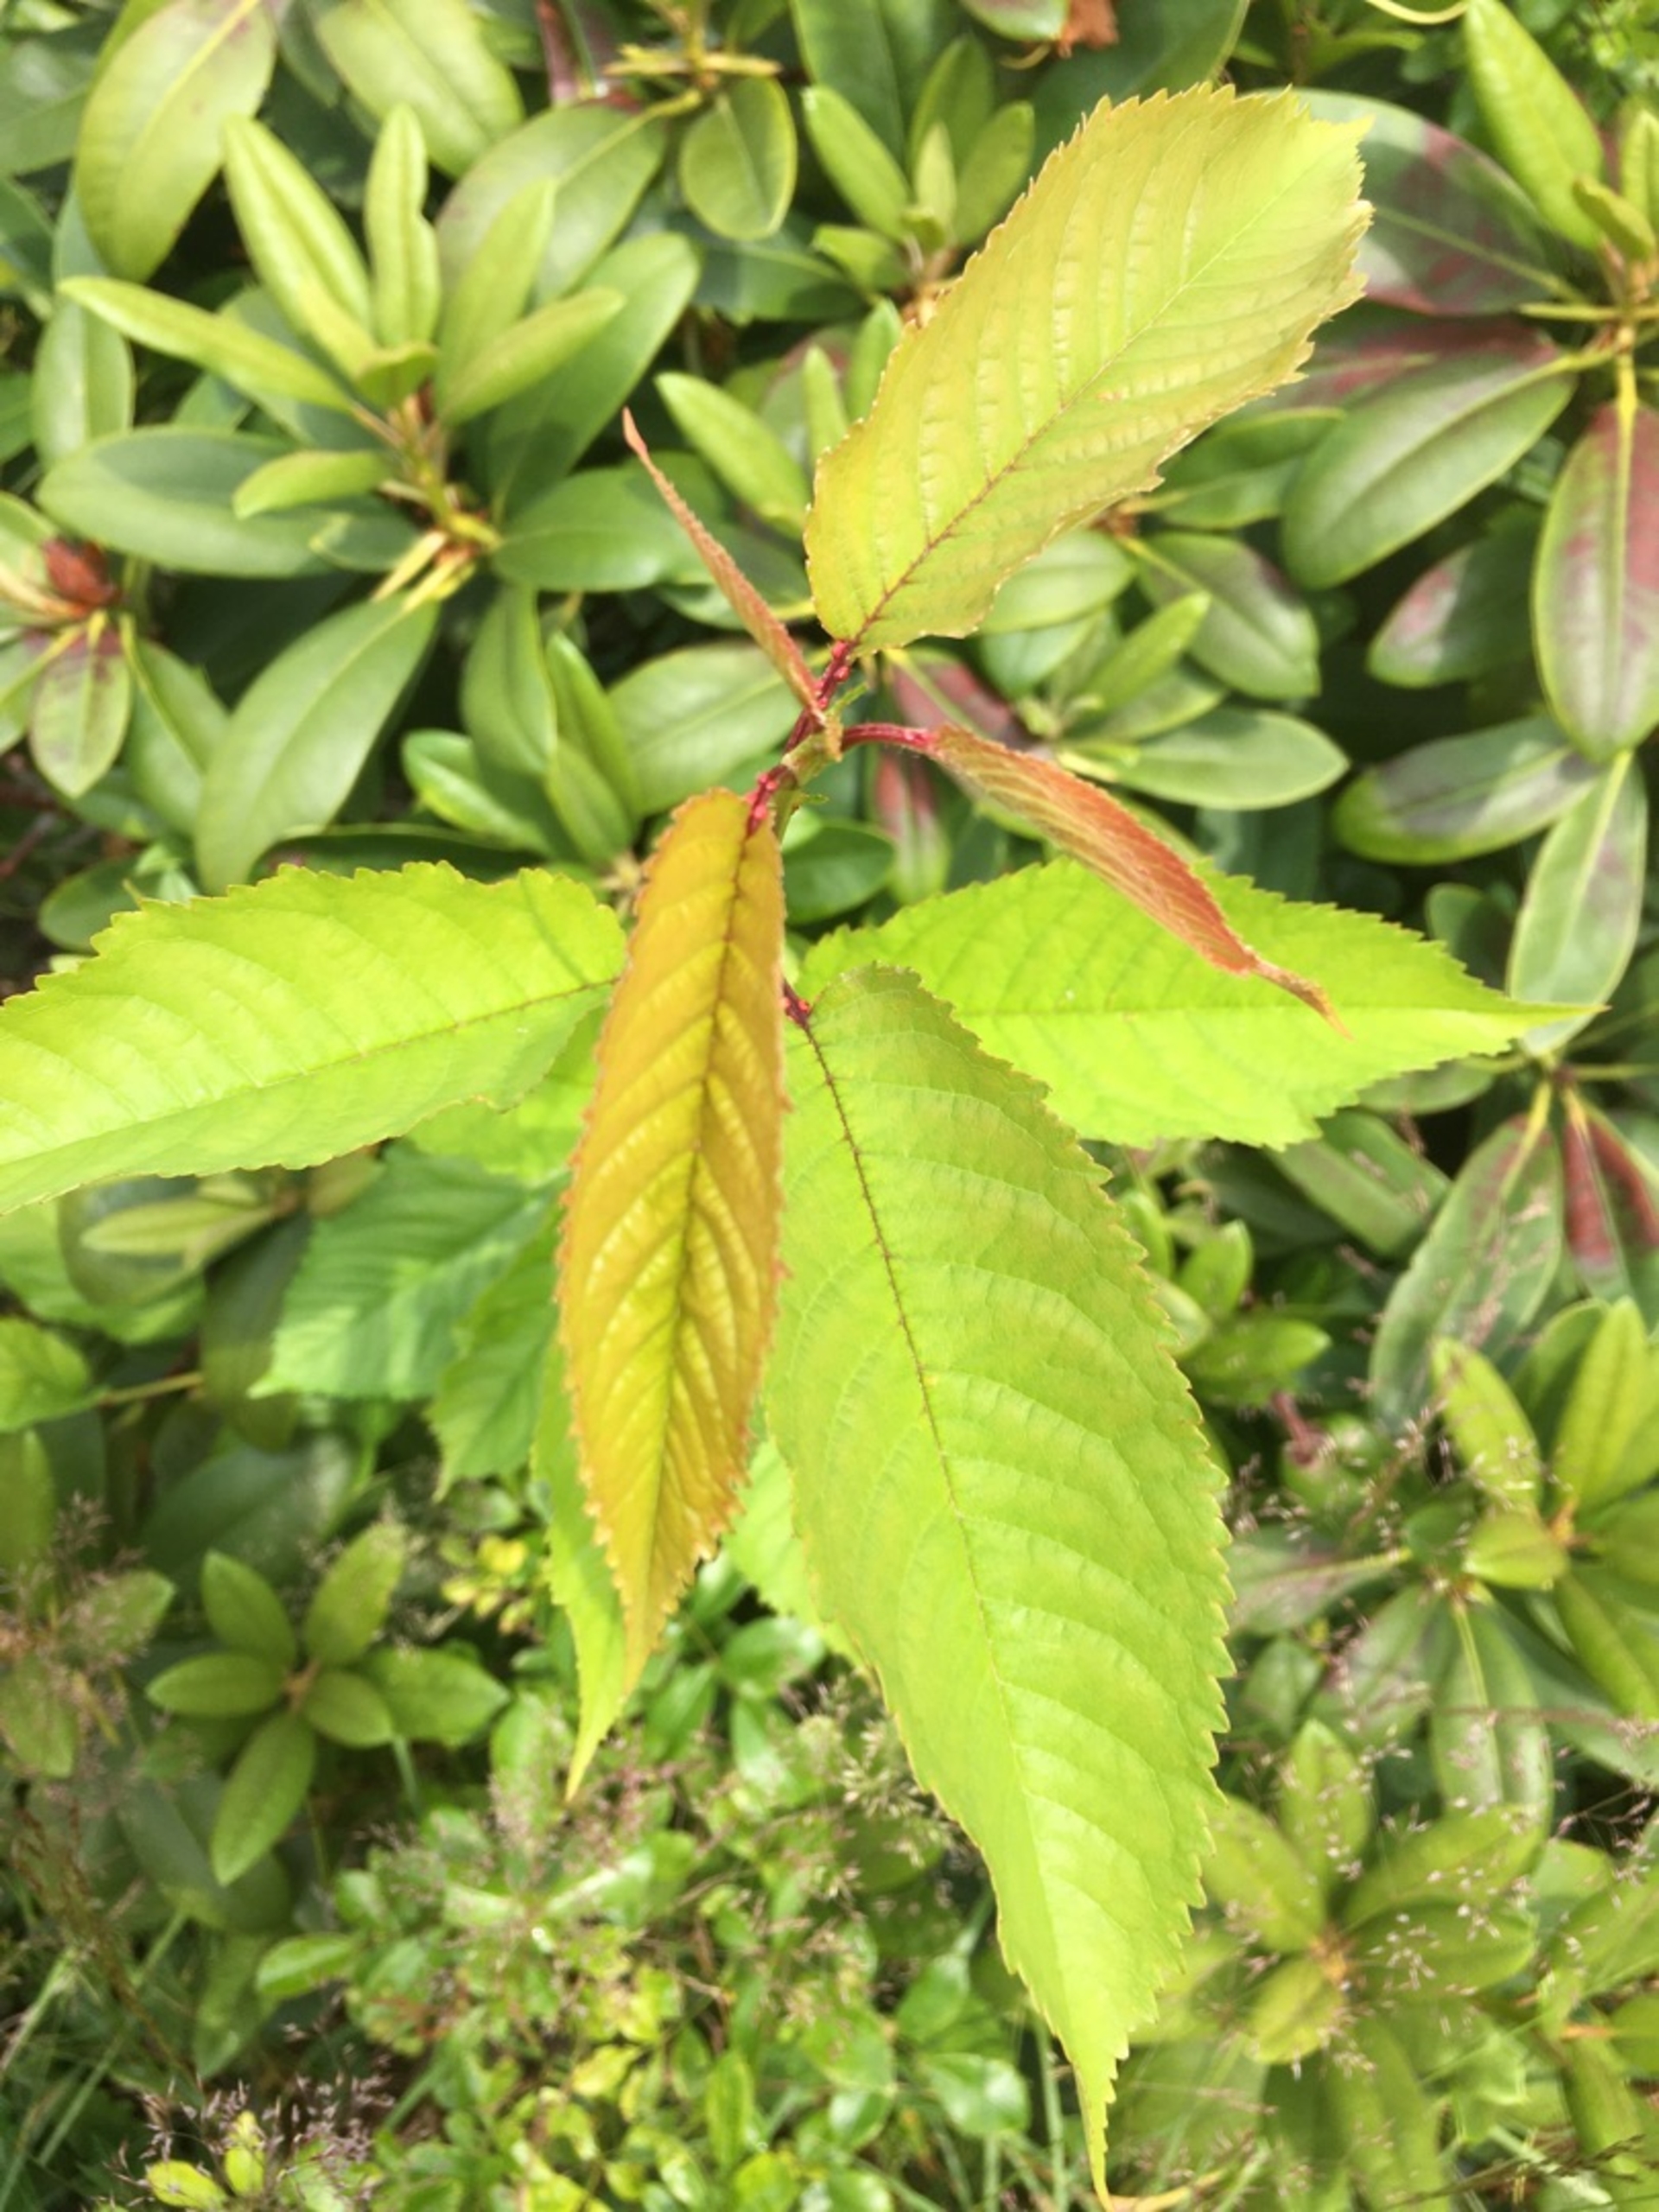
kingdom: Plantae
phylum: Tracheophyta
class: Magnoliopsida
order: Rosales
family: Rosaceae
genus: Prunus
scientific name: Prunus avium
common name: Fugle-kirsebær
